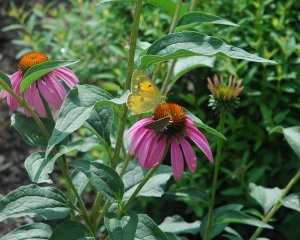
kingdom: Animalia
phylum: Arthropoda
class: Insecta
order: Lepidoptera
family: Pieridae
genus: Colias
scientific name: Colias eurytheme
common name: Orange Sulphur
